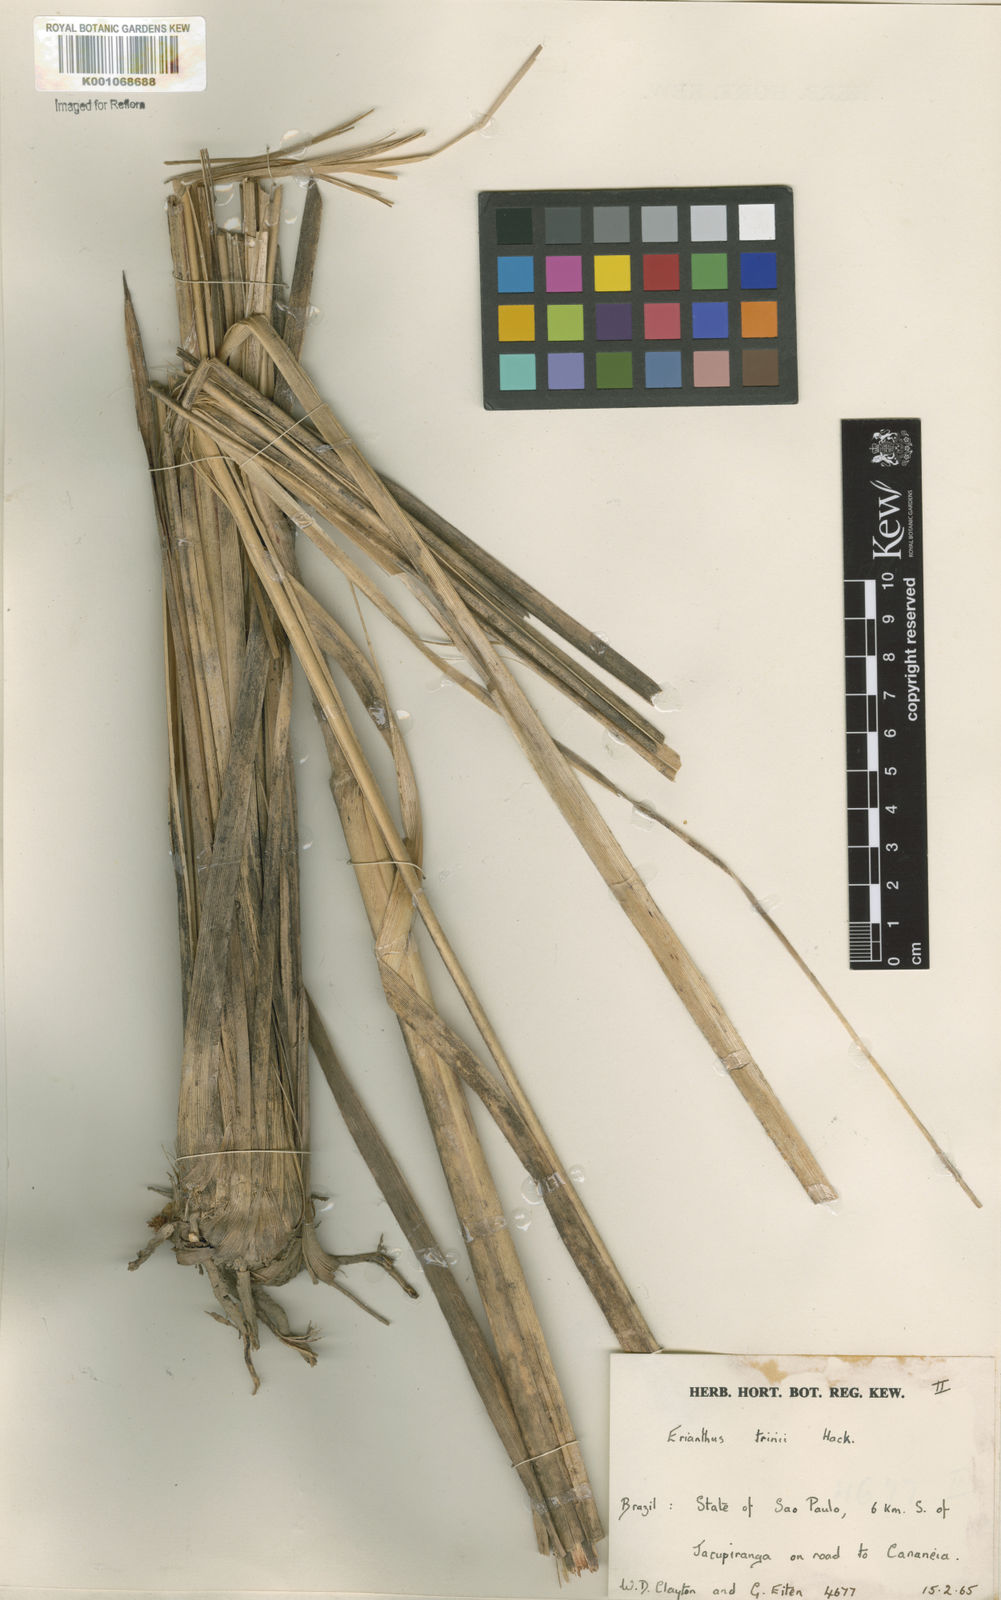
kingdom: Plantae
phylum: Tracheophyta
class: Liliopsida
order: Poales
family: Poaceae
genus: Erianthus
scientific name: Erianthus asper
